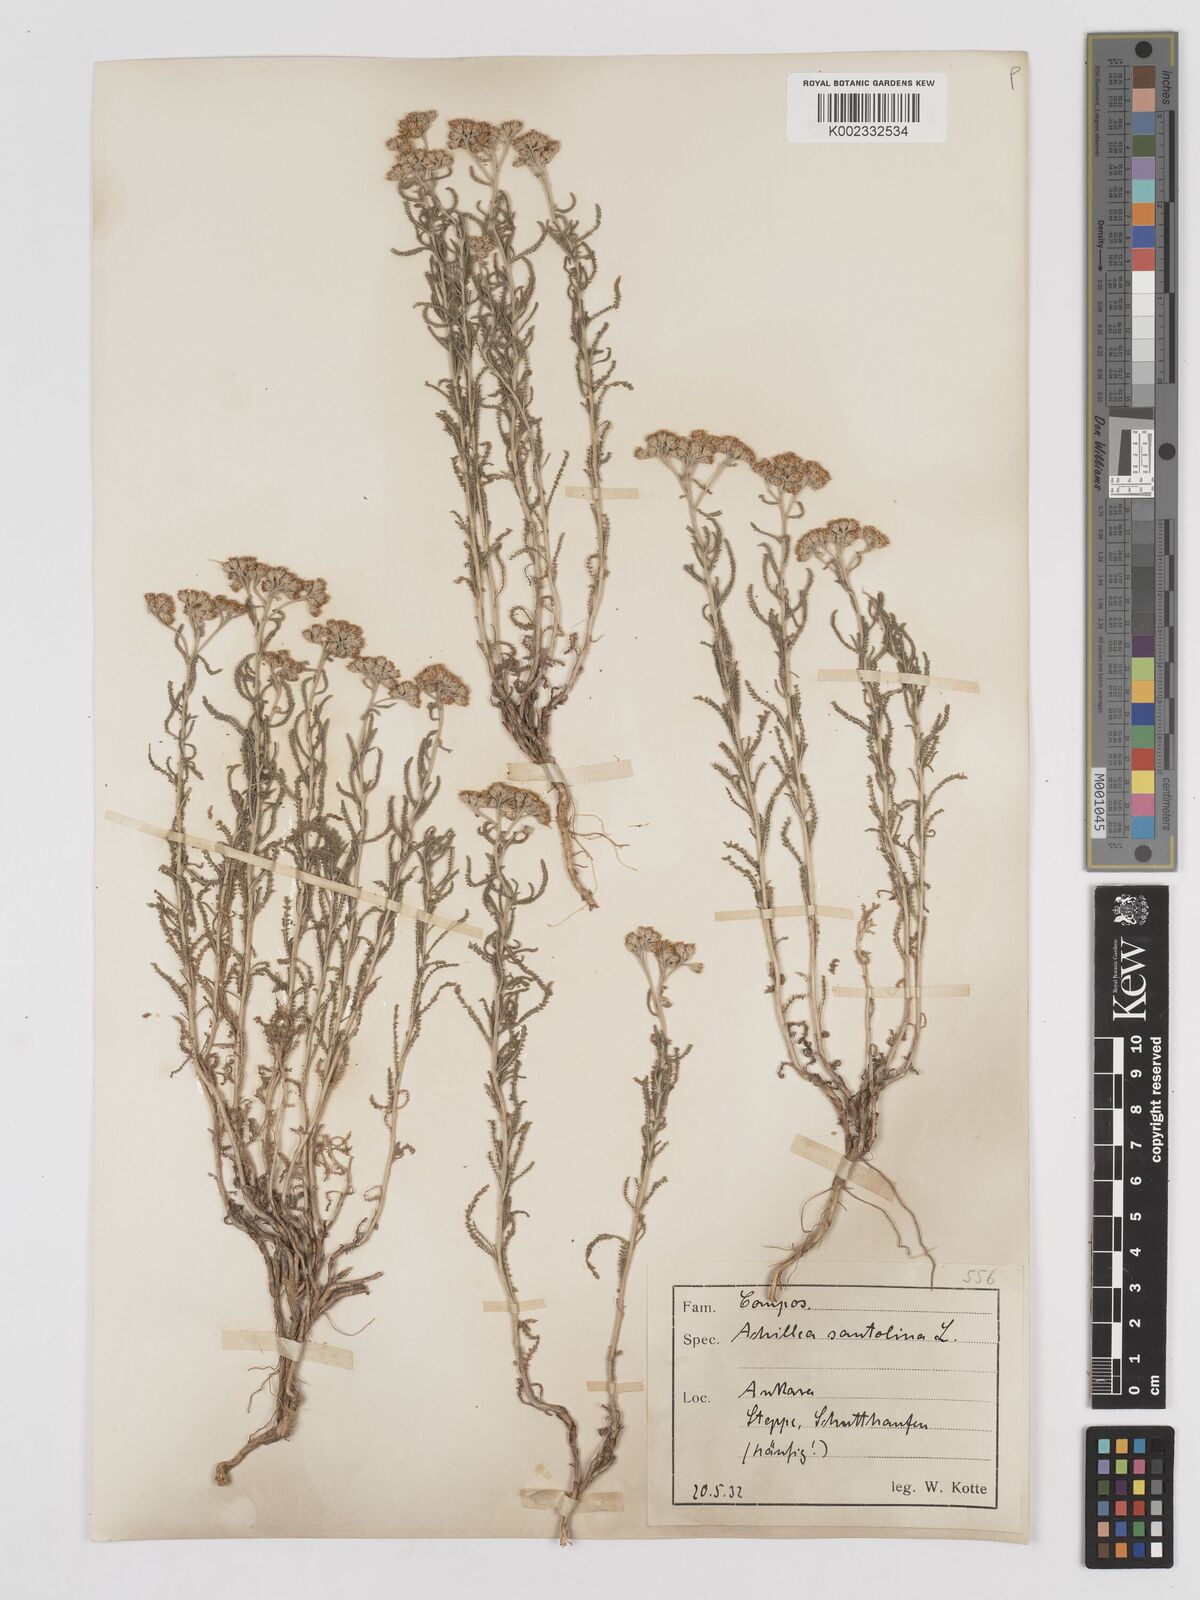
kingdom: Plantae
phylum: Tracheophyta
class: Magnoliopsida
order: Asterales
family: Asteraceae
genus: Achillea
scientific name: Achillea tenuifolia
